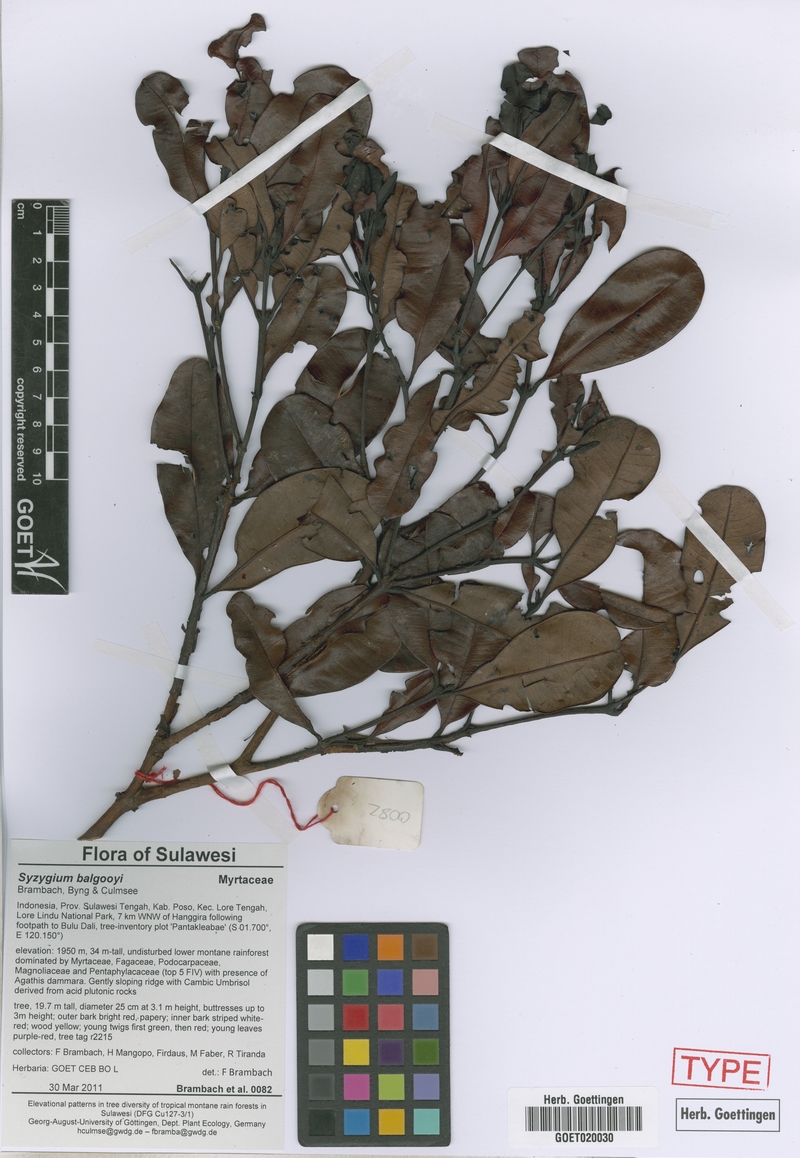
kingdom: Plantae
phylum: Tracheophyta
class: Magnoliopsida
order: Myrtales
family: Myrtaceae
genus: Syzygium
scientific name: Syzygium balgooyi
